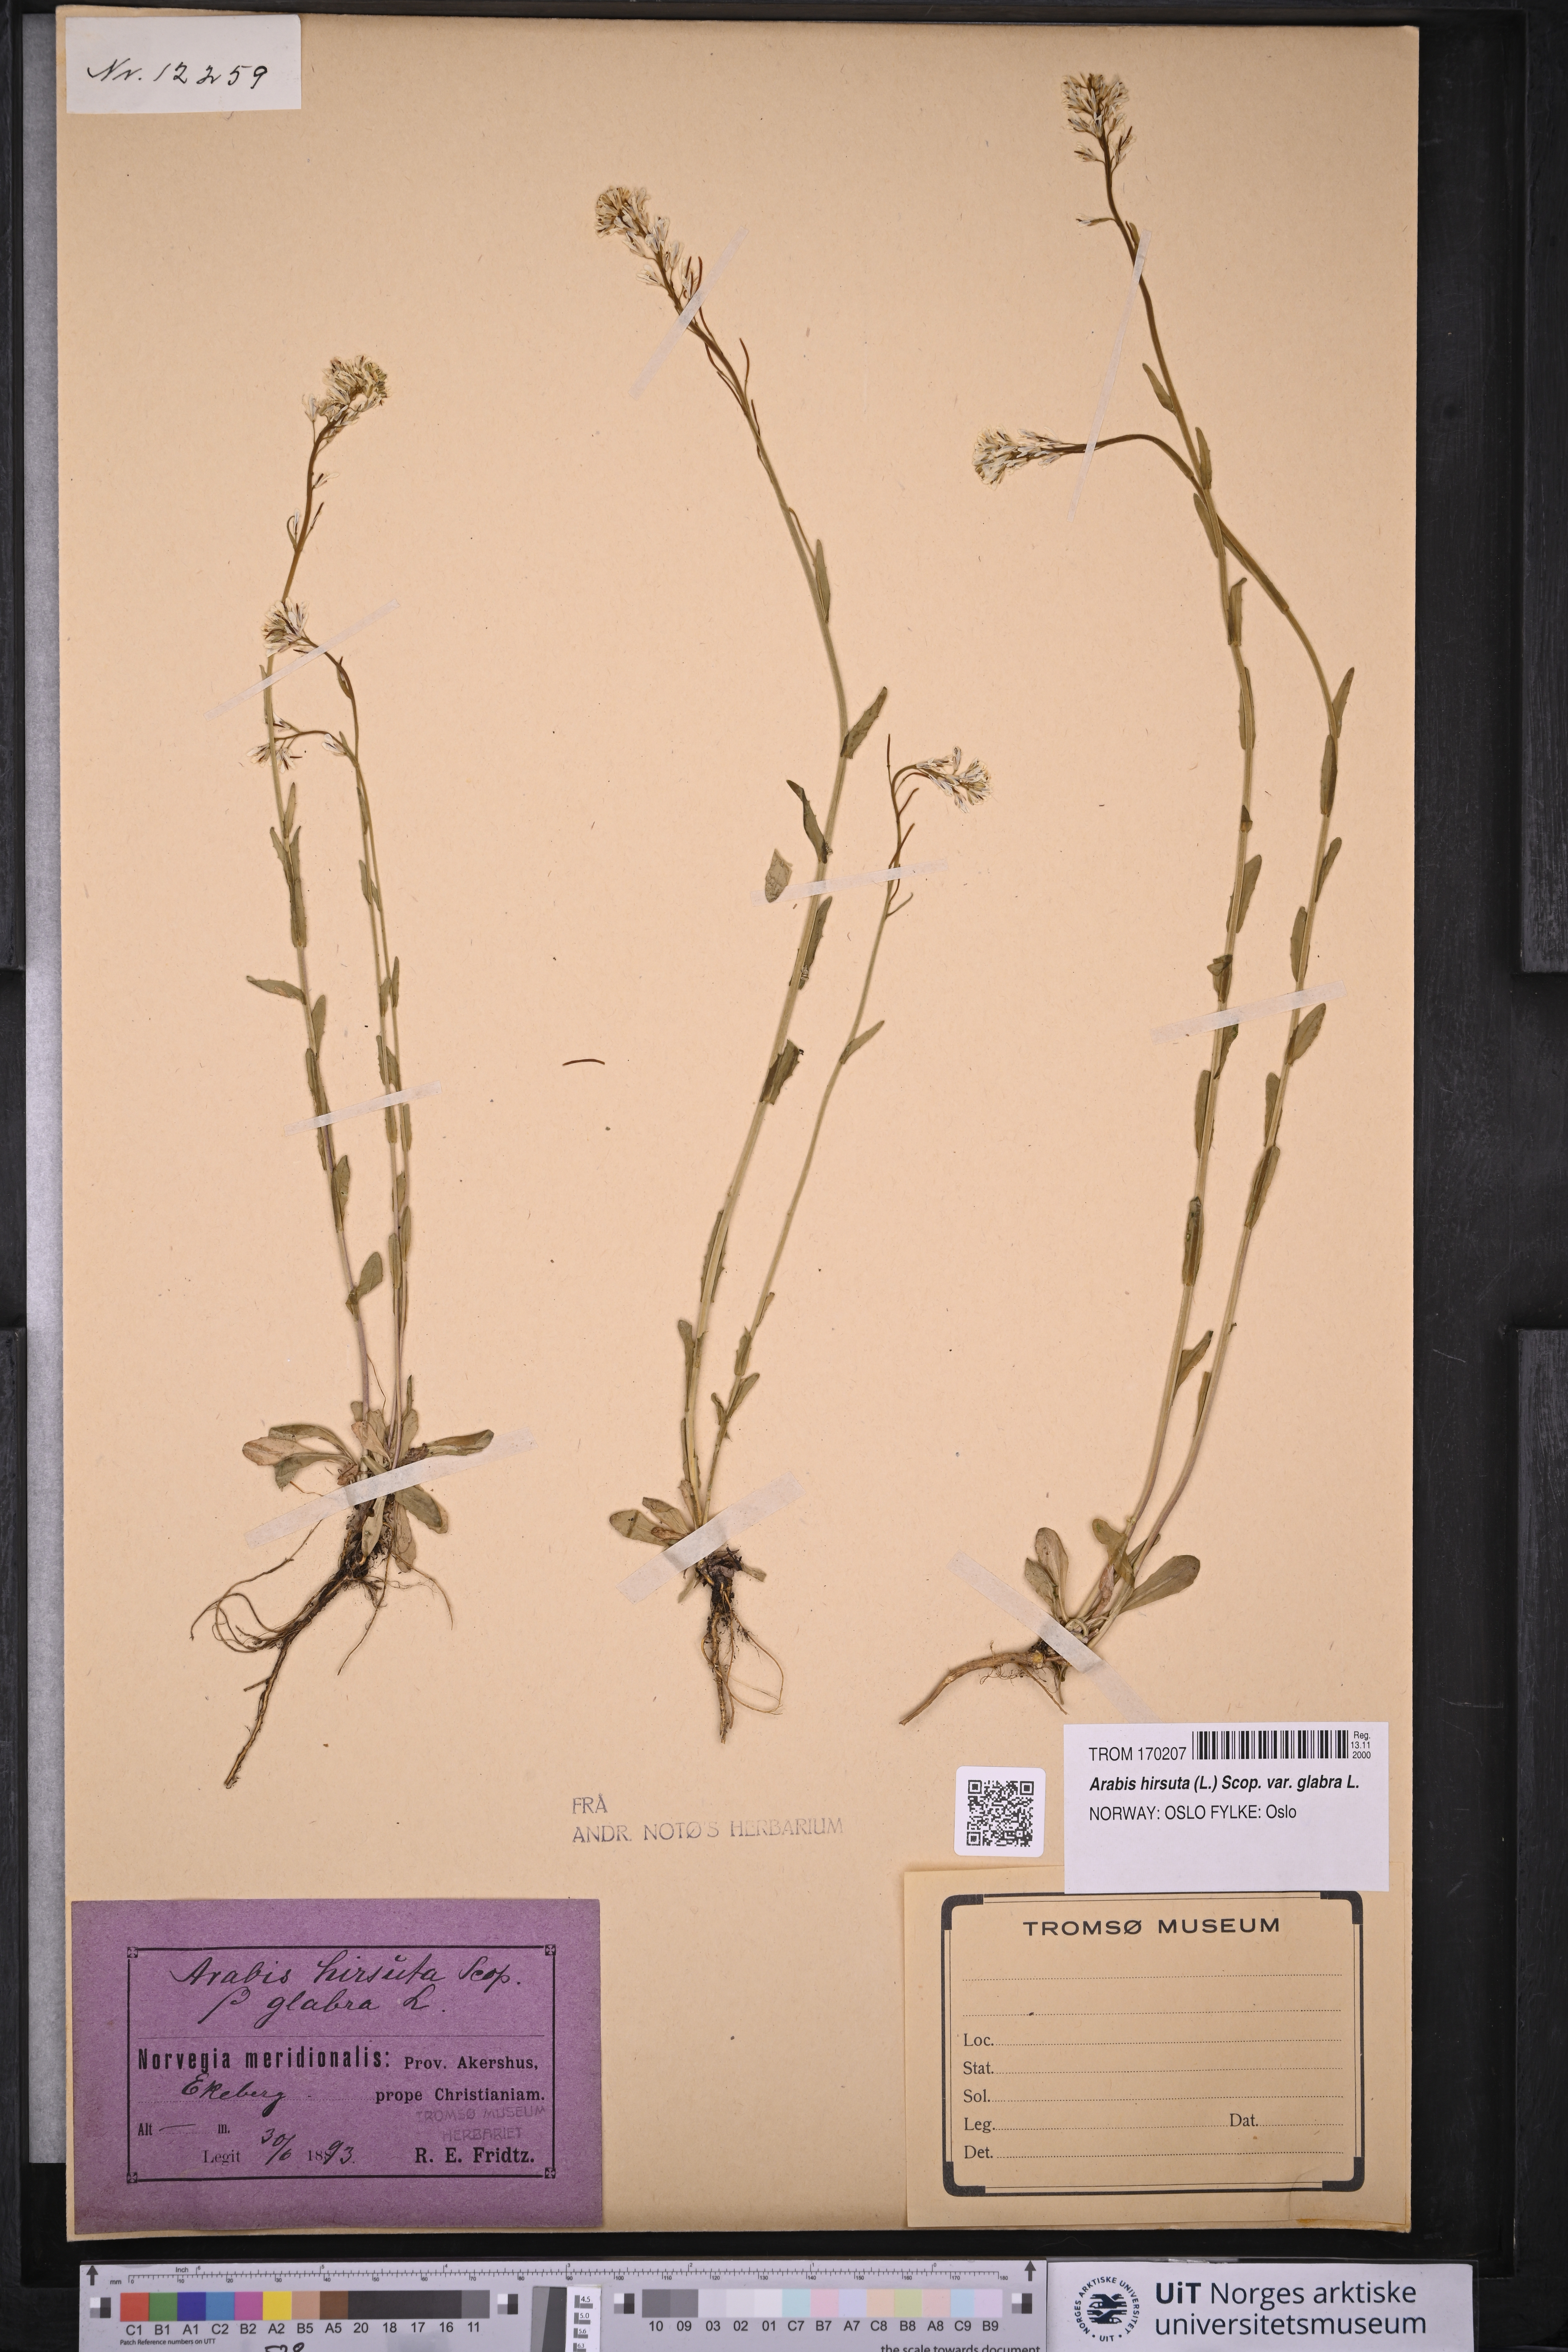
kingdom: Plantae
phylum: Tracheophyta
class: Magnoliopsida
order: Brassicales
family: Brassicaceae
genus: Arabis
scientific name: Arabis hirsuta
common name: Hairy rock-cress
